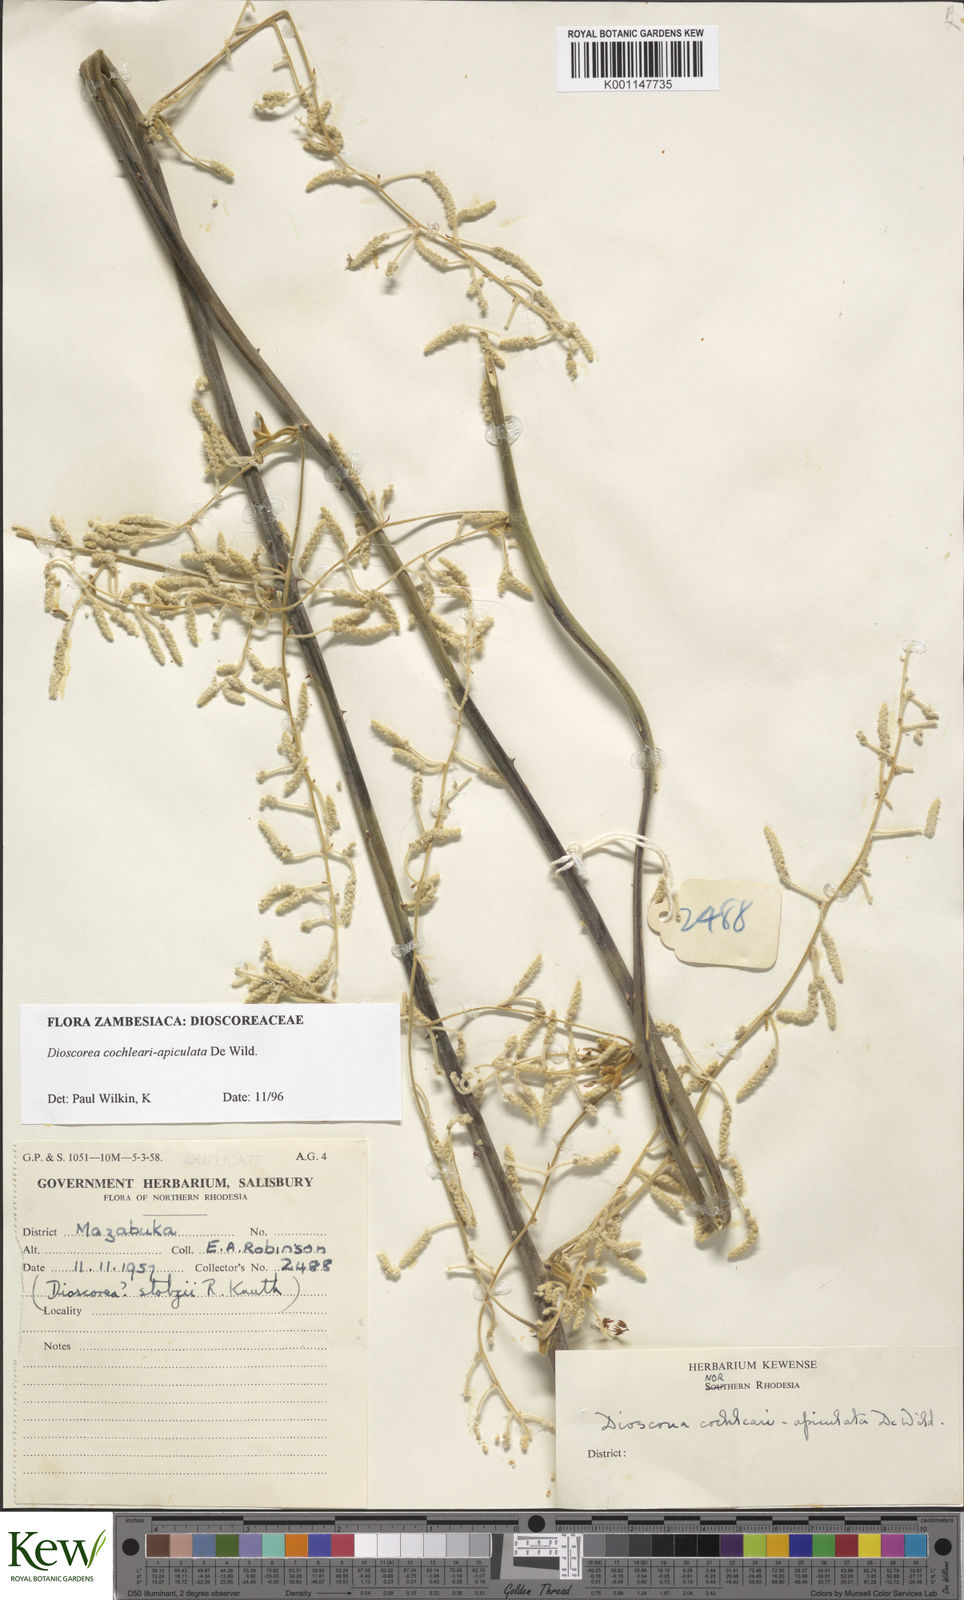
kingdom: Plantae
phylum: Tracheophyta
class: Liliopsida
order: Dioscoreales
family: Dioscoreaceae
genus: Dioscorea
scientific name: Dioscorea cochleariapiculata
